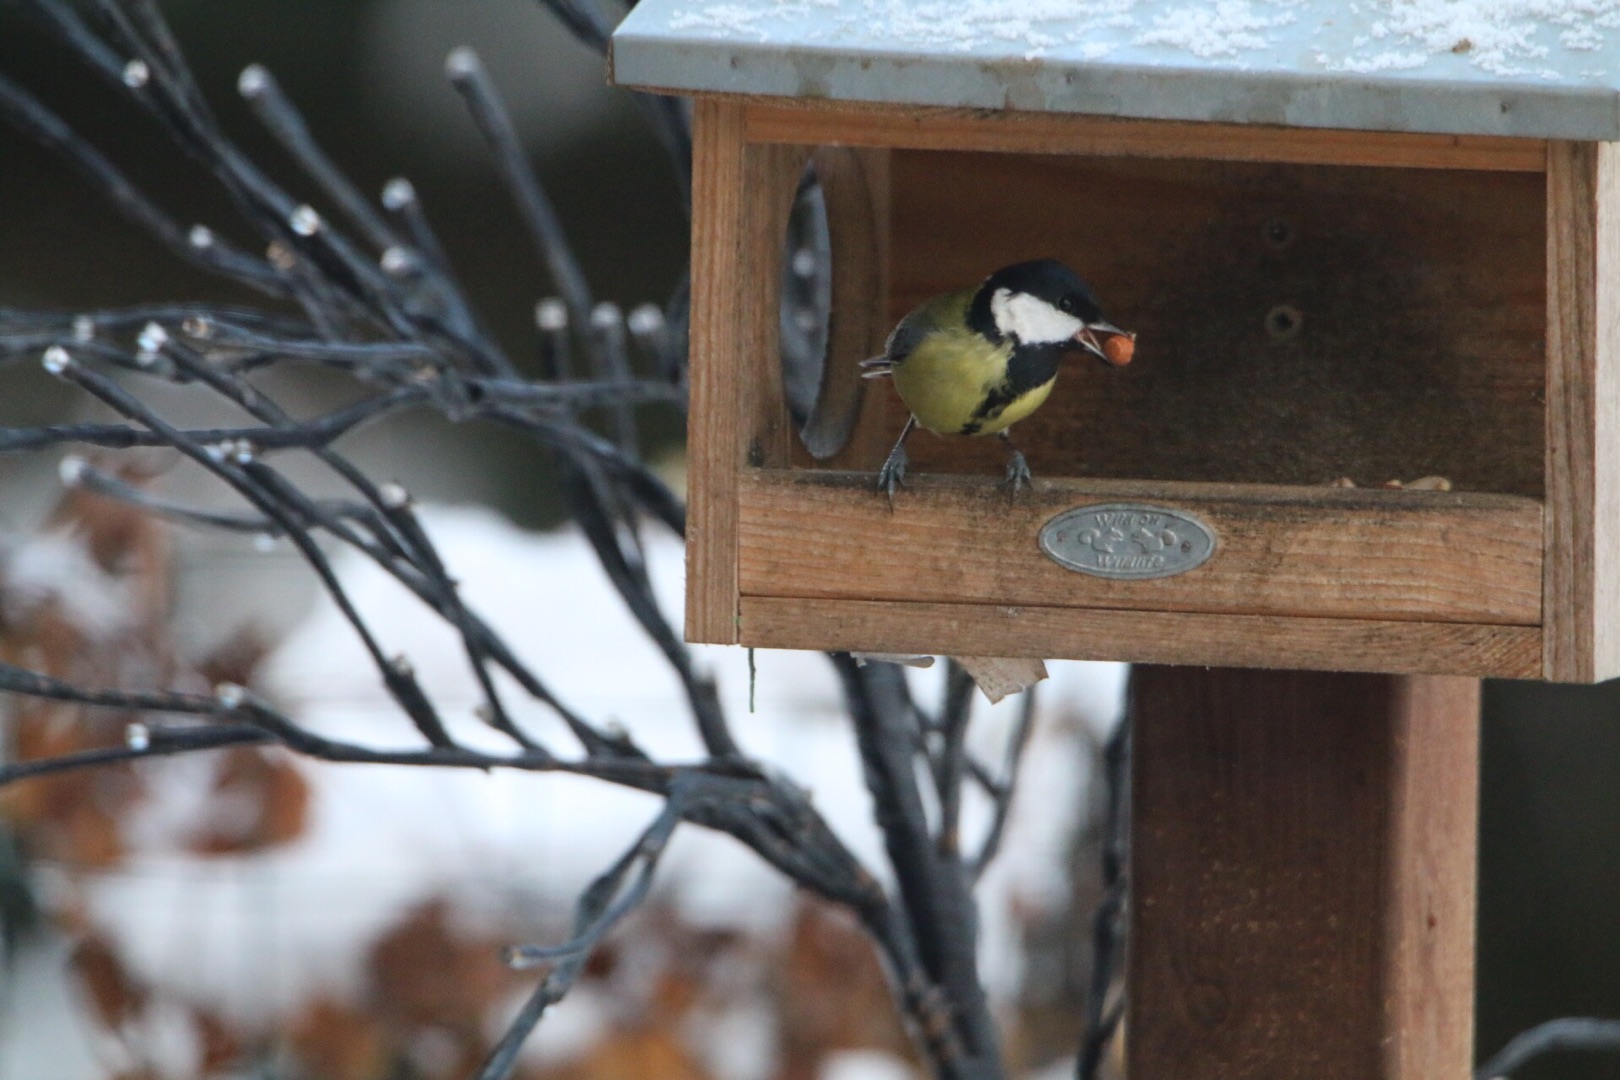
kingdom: Animalia
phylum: Chordata
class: Aves
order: Passeriformes
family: Paridae
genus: Parus
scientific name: Parus major
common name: Musvit
